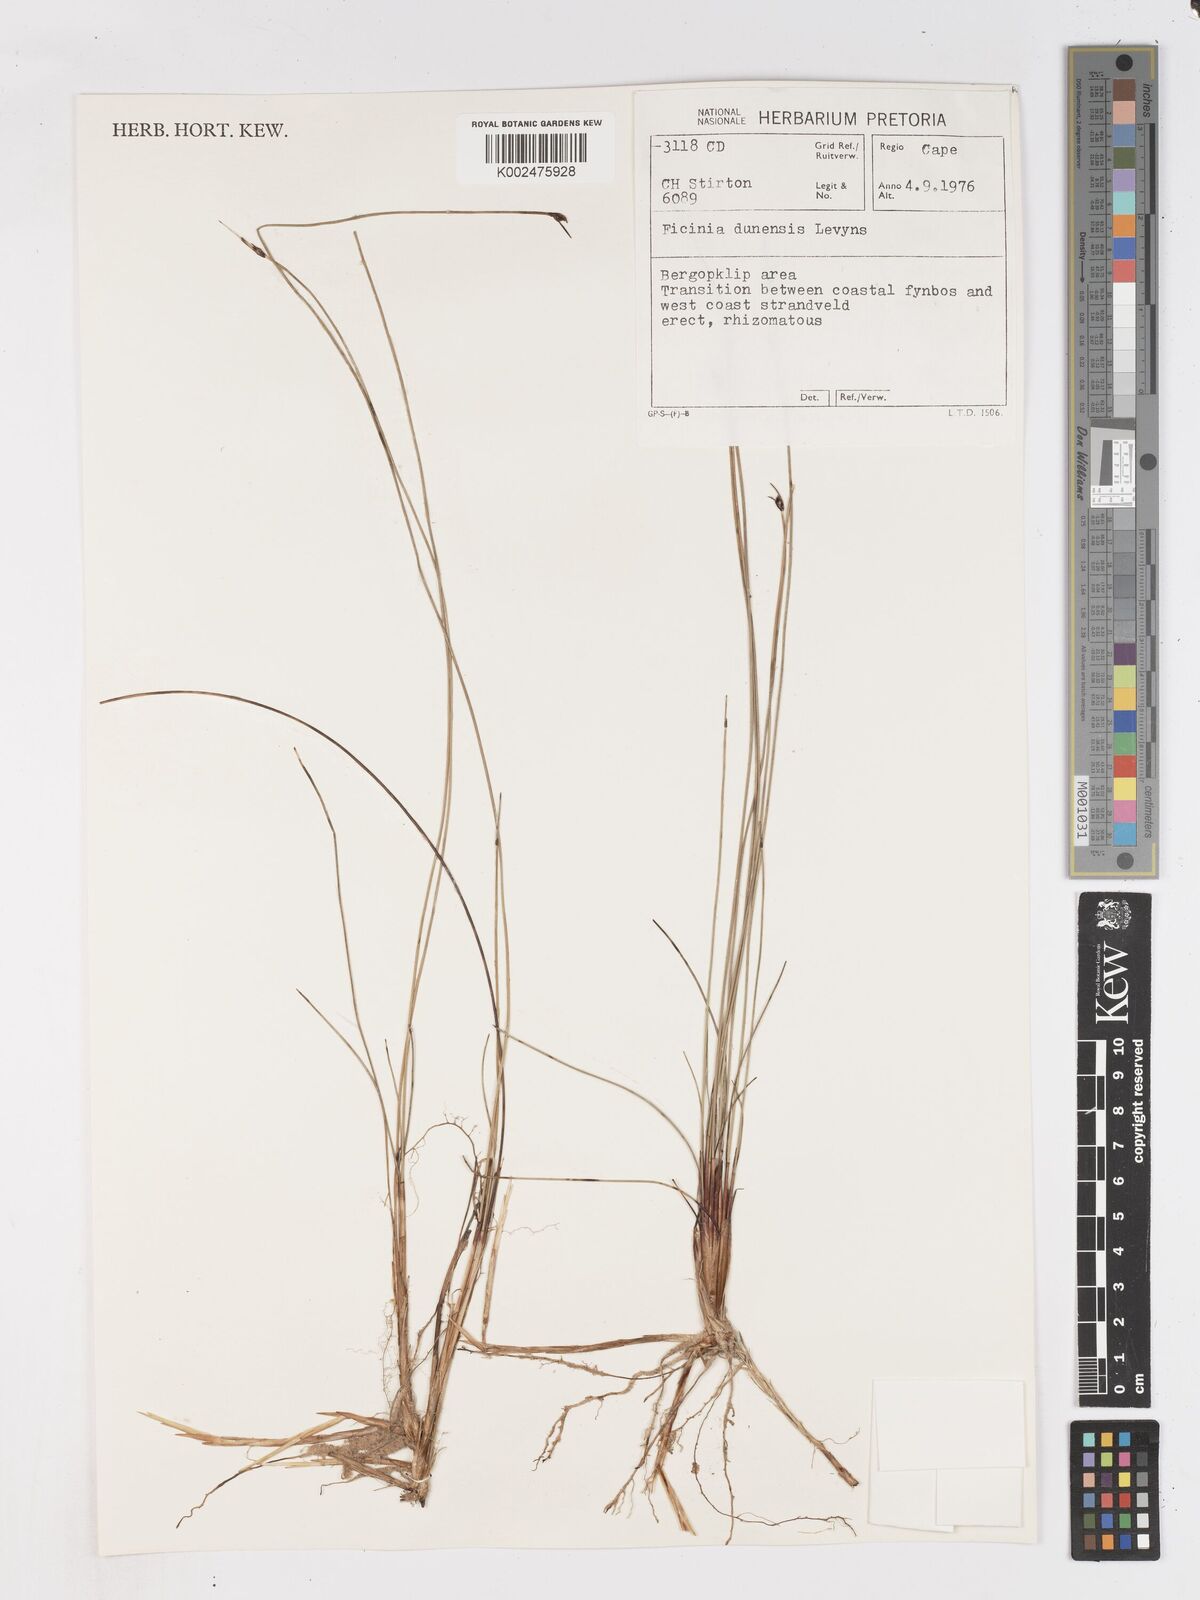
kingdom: Plantae
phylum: Tracheophyta
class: Liliopsida
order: Poales
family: Cyperaceae
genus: Ficinia
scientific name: Ficinia dunensis
